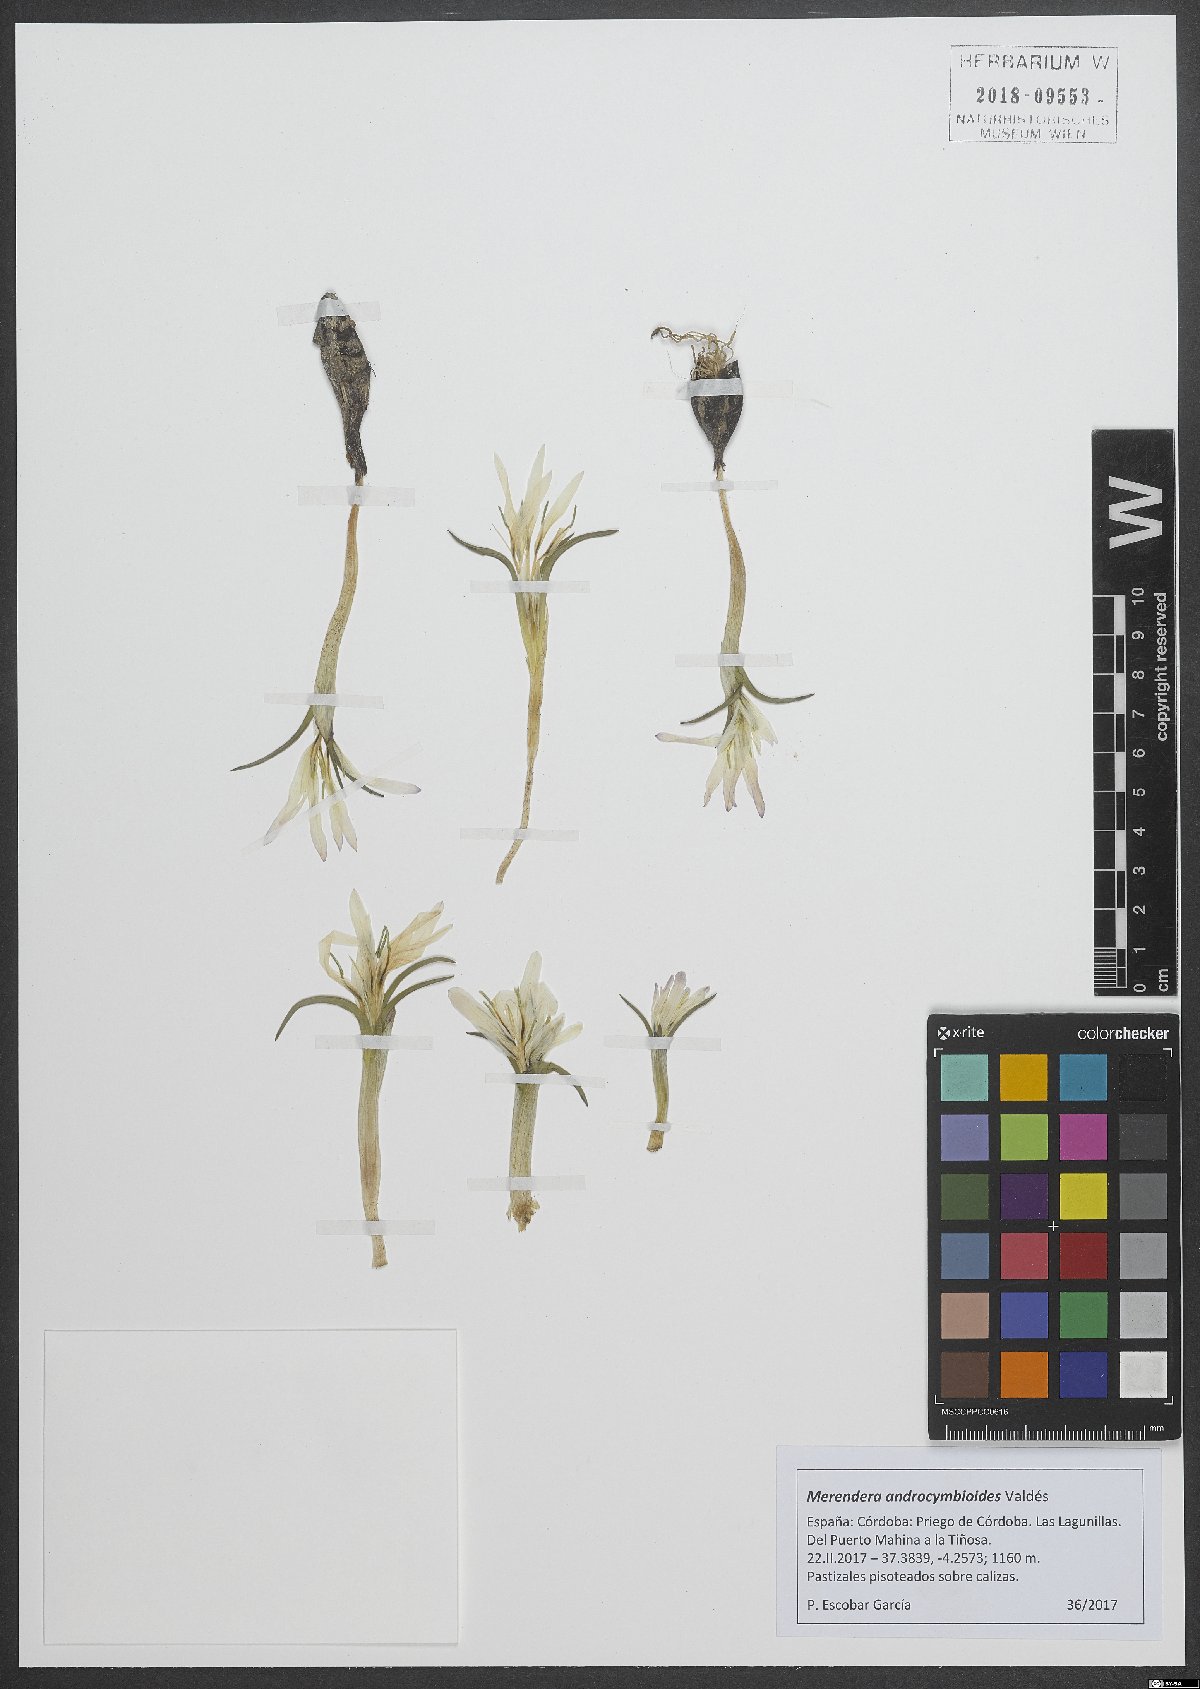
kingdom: Plantae
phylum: Tracheophyta
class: Liliopsida
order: Liliales
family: Colchicaceae
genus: Colchicum
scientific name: Colchicum androcymbioides
